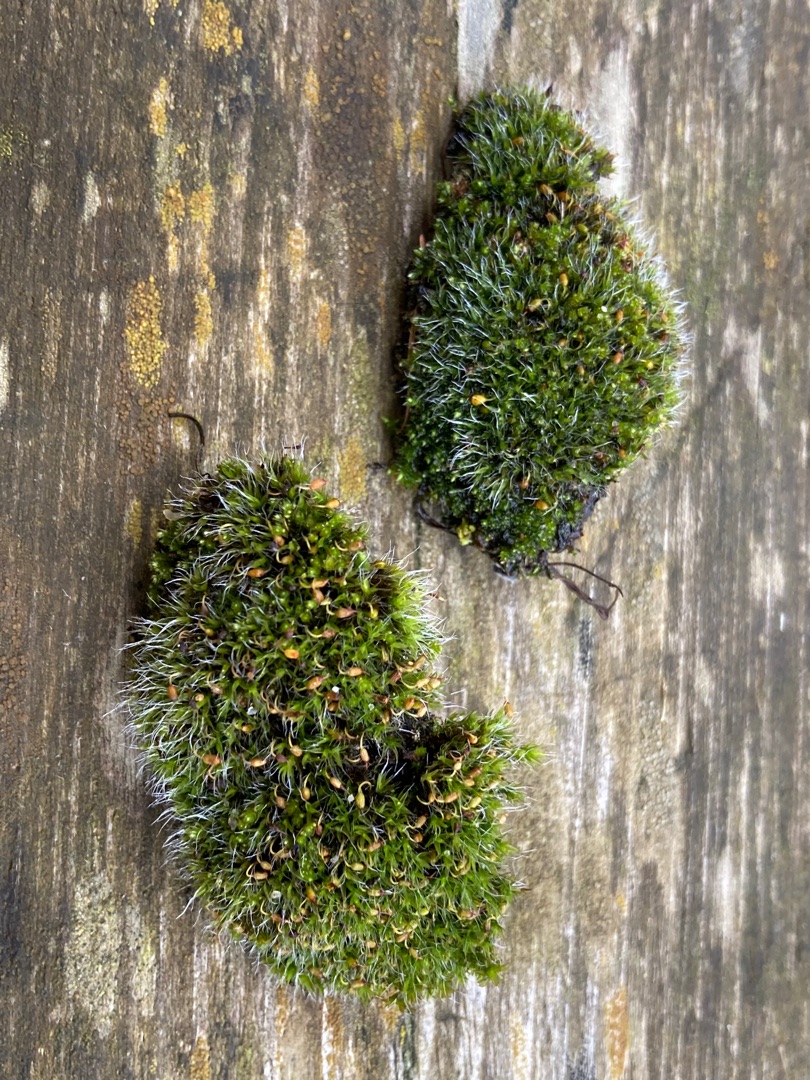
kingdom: Plantae
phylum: Bryophyta
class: Bryopsida
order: Grimmiales
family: Grimmiaceae
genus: Grimmia
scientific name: Grimmia pulvinata
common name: Pude-gråmos
